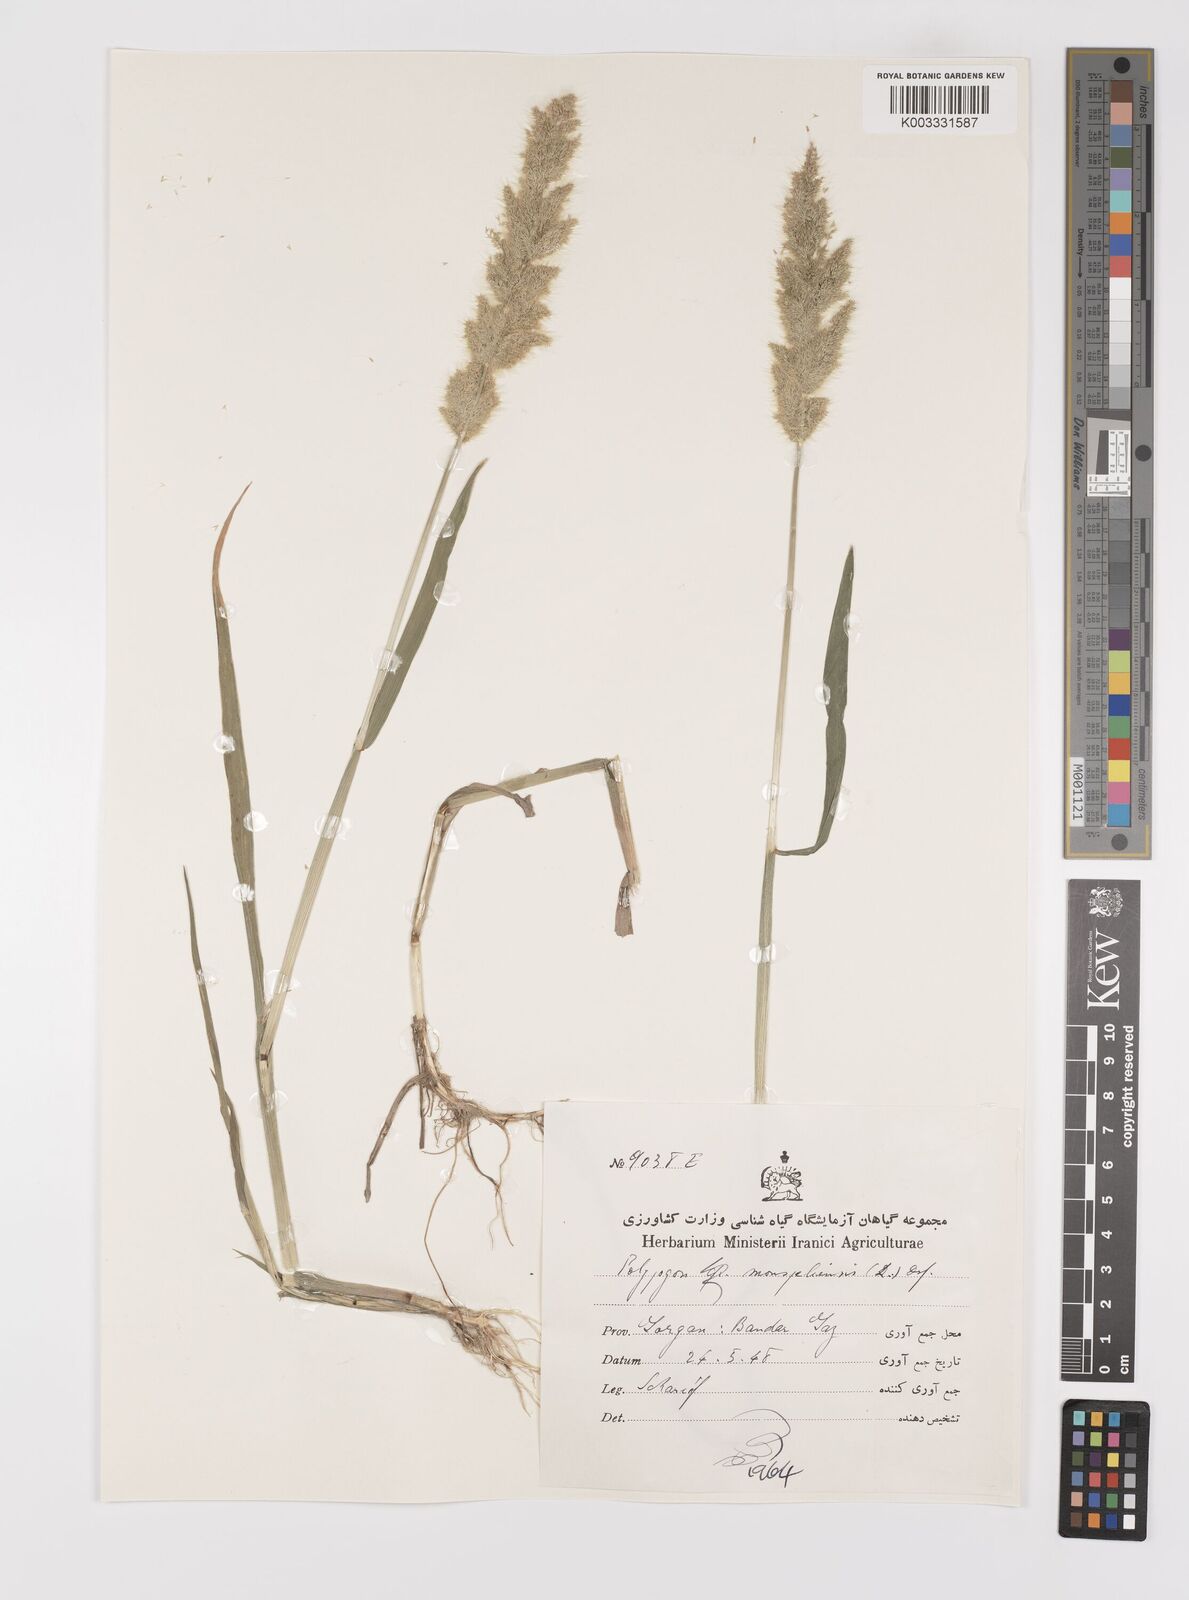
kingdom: Plantae
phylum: Tracheophyta
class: Liliopsida
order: Poales
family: Poaceae
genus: Polypogon
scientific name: Polypogon monspeliensis
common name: Annual rabbitsfoot grass
